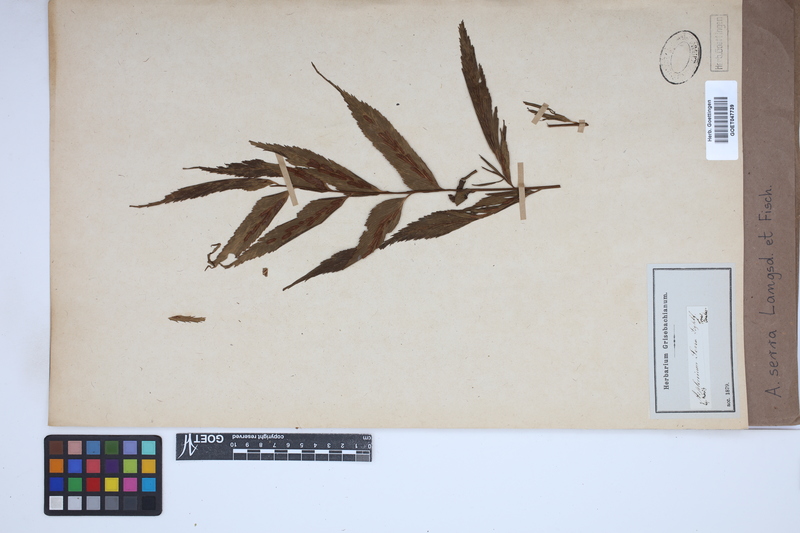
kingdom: Plantae
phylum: Tracheophyta
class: Polypodiopsida
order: Polypodiales
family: Aspleniaceae
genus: Asplenium
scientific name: Asplenium serra
